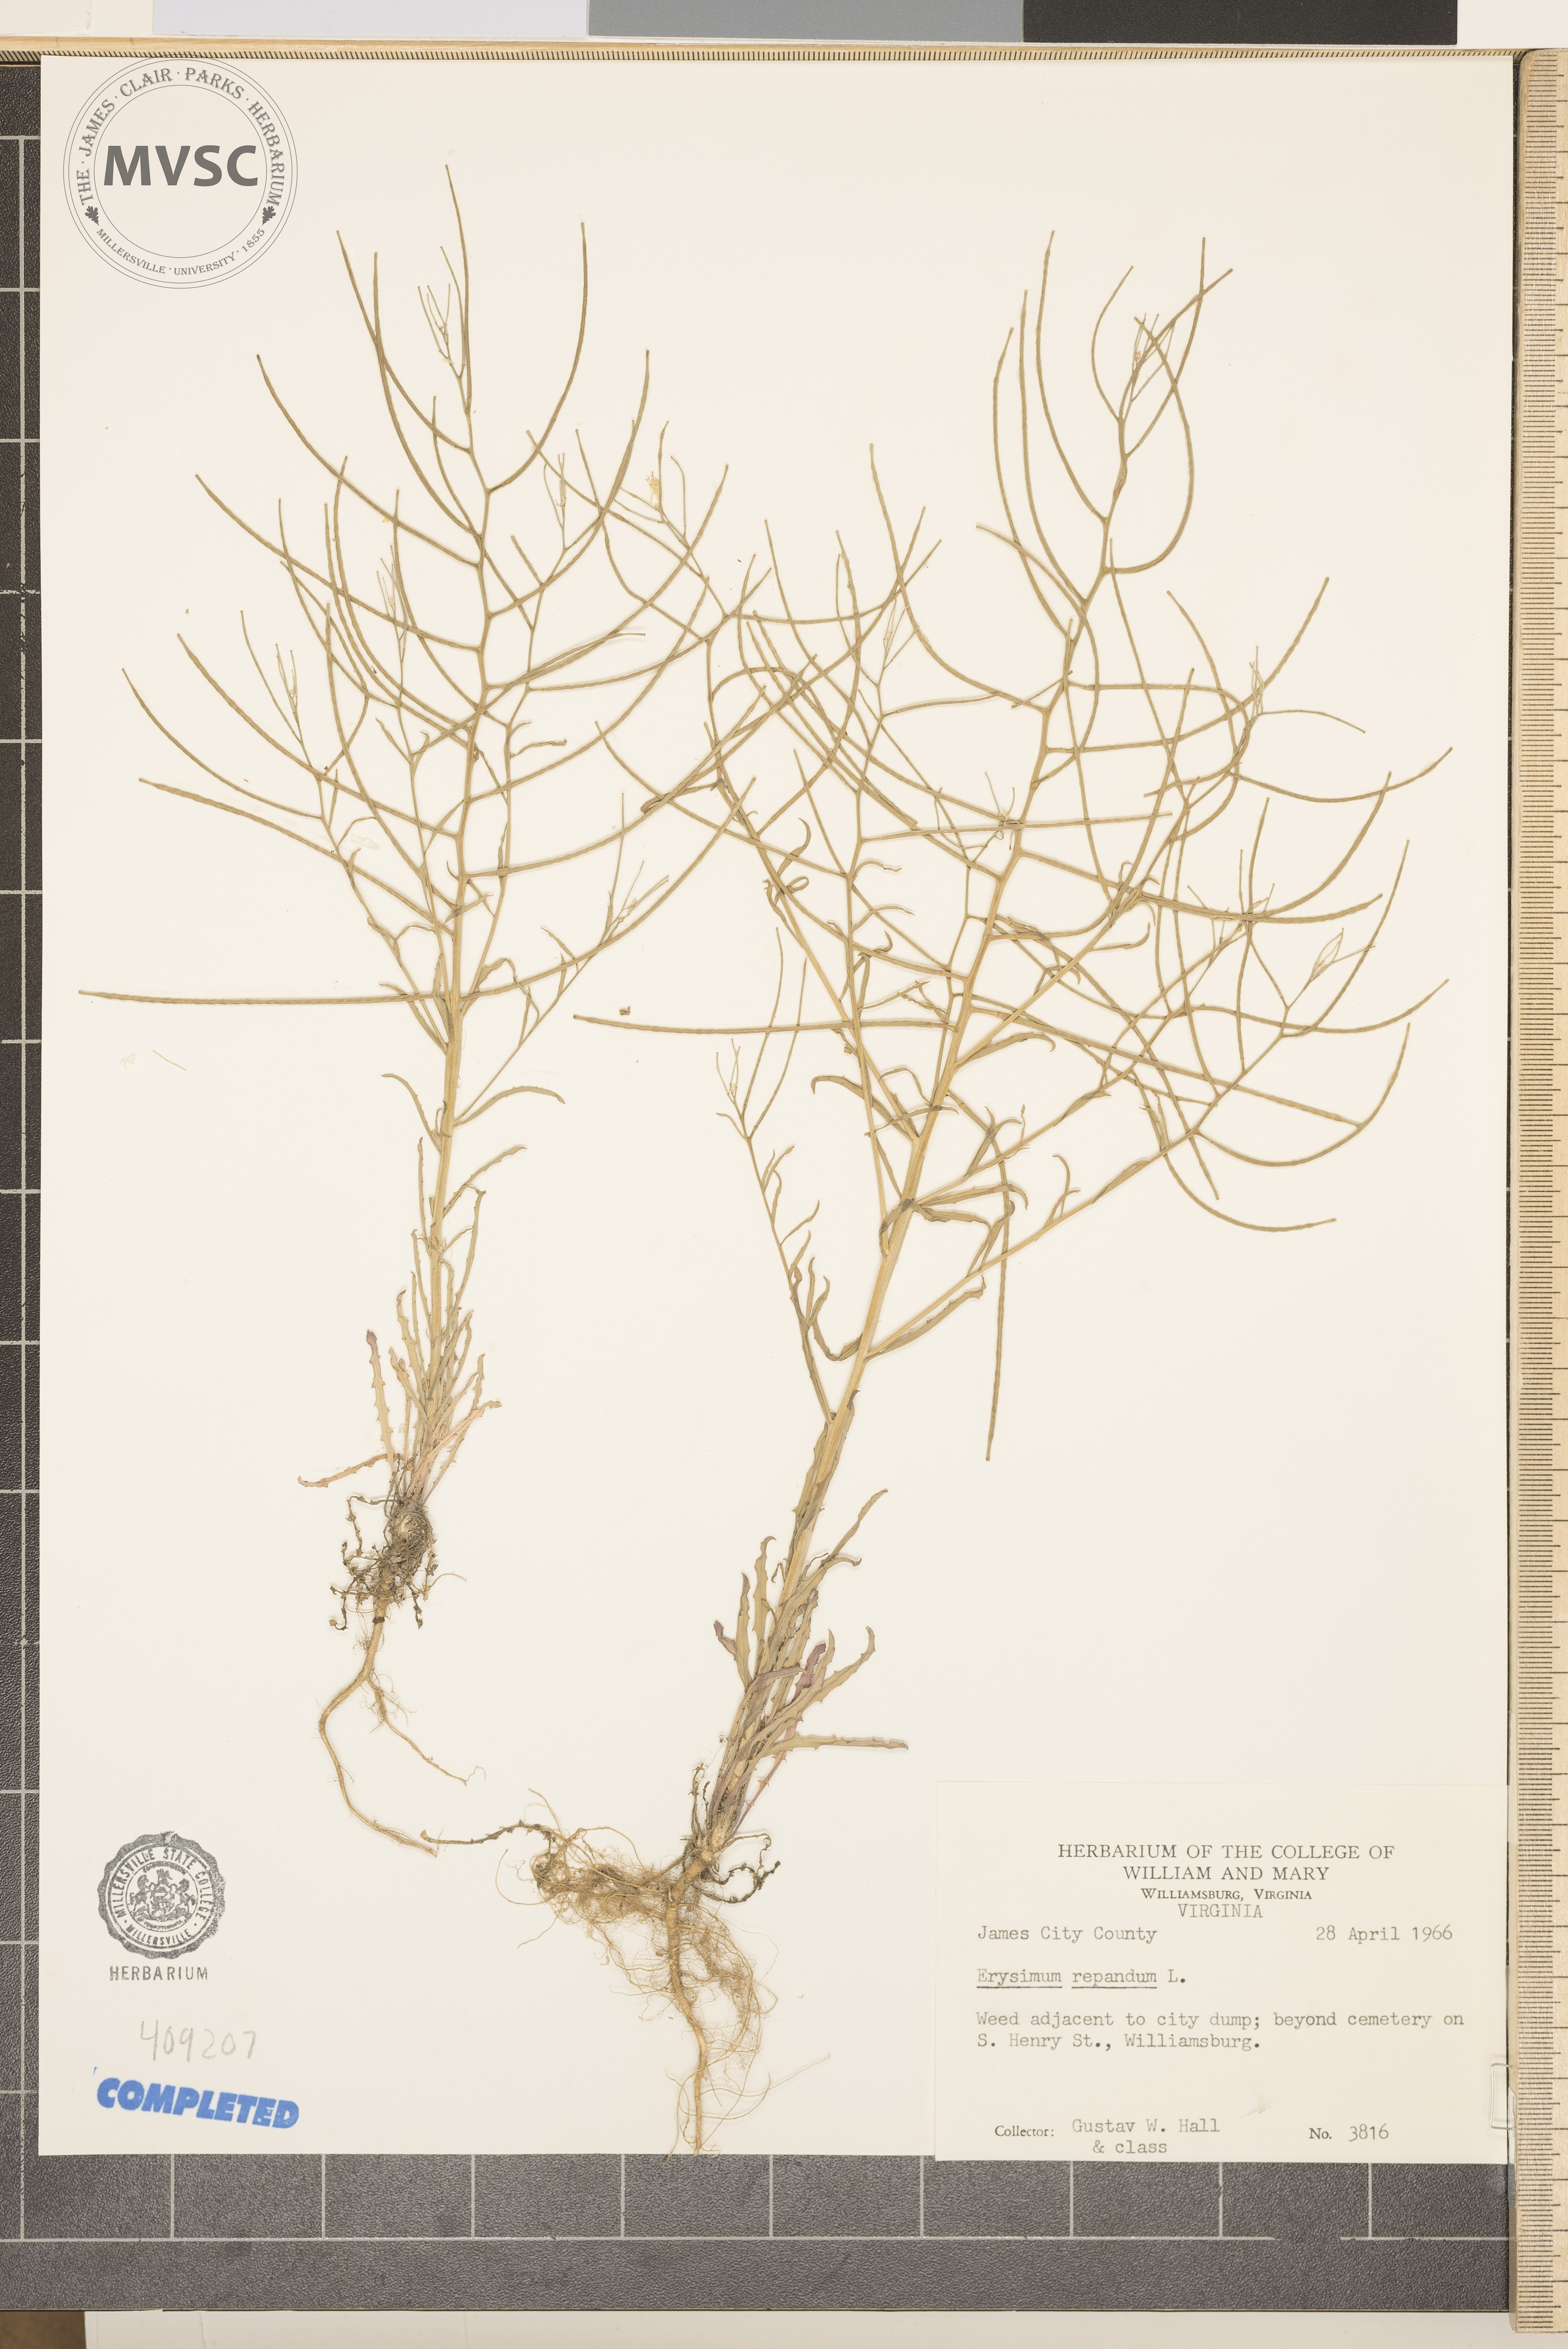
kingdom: Plantae
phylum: Tracheophyta
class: Magnoliopsida
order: Brassicales
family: Brassicaceae
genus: Erysimum
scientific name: Erysimum repandum
